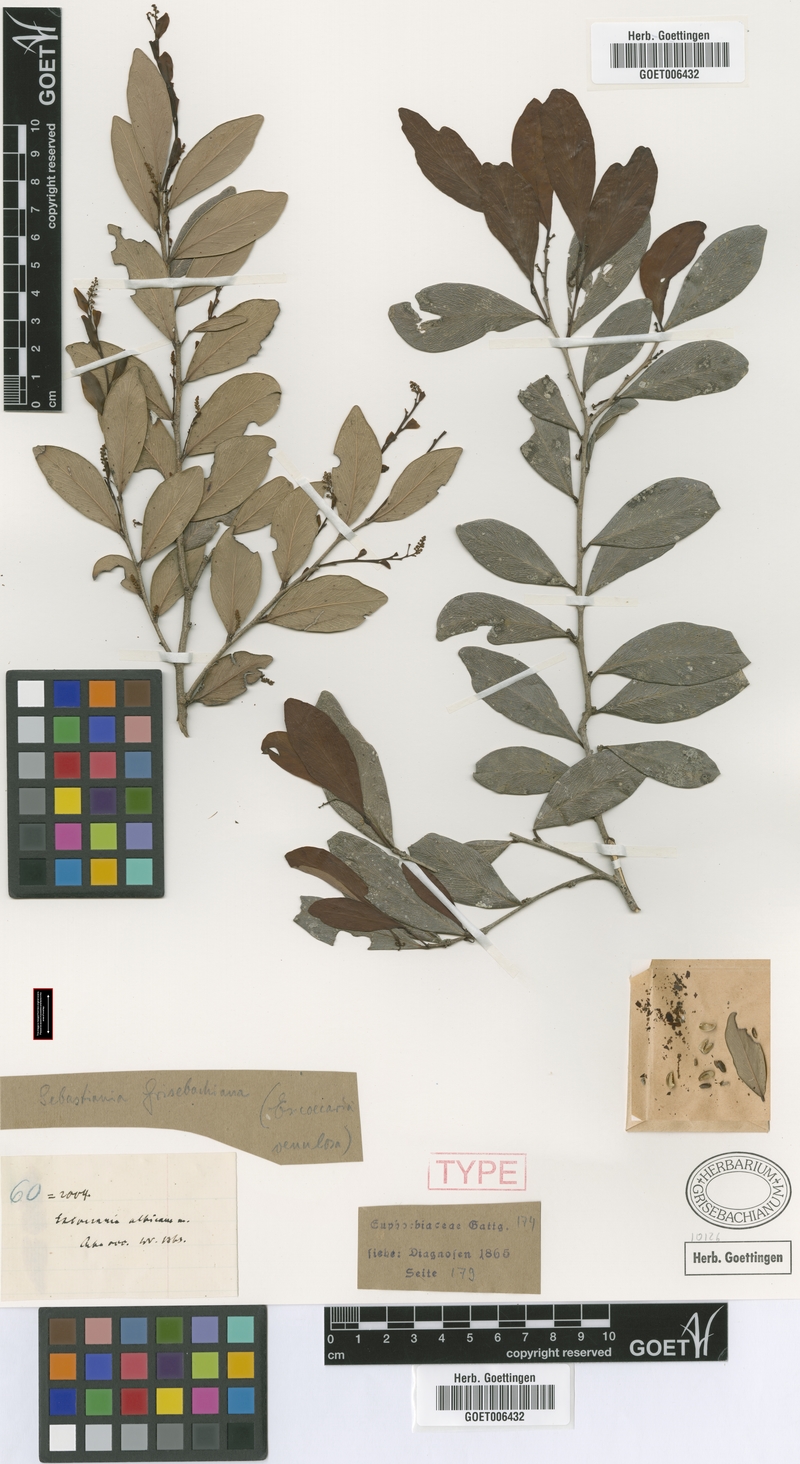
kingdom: Plantae
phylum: Tracheophyta
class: Magnoliopsida
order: Malpighiales
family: Euphorbiaceae
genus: Gymnanthes
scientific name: Gymnanthes albicans
